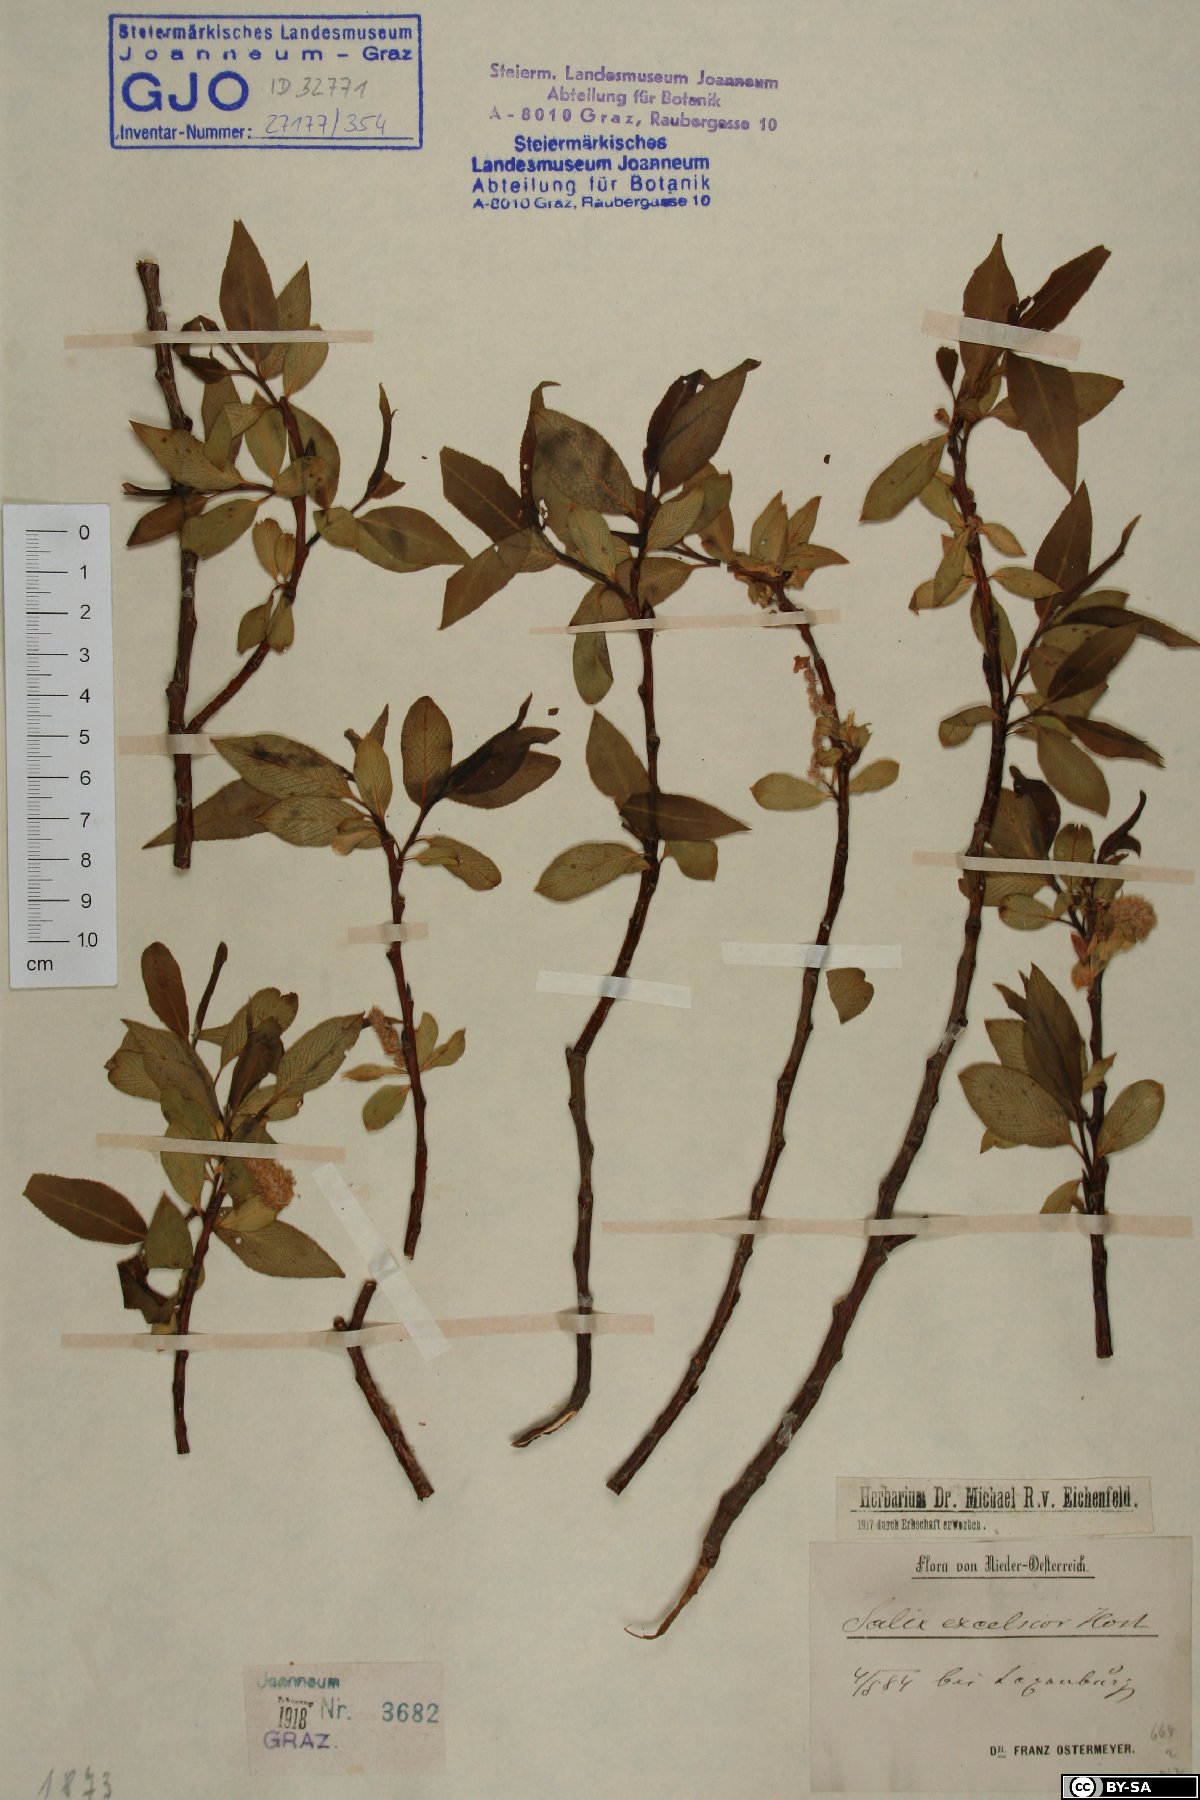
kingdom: Plantae
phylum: Tracheophyta
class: Magnoliopsida
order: Malpighiales
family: Salicaceae
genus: Salix
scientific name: Salix rubens
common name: Hybrid crack willow
